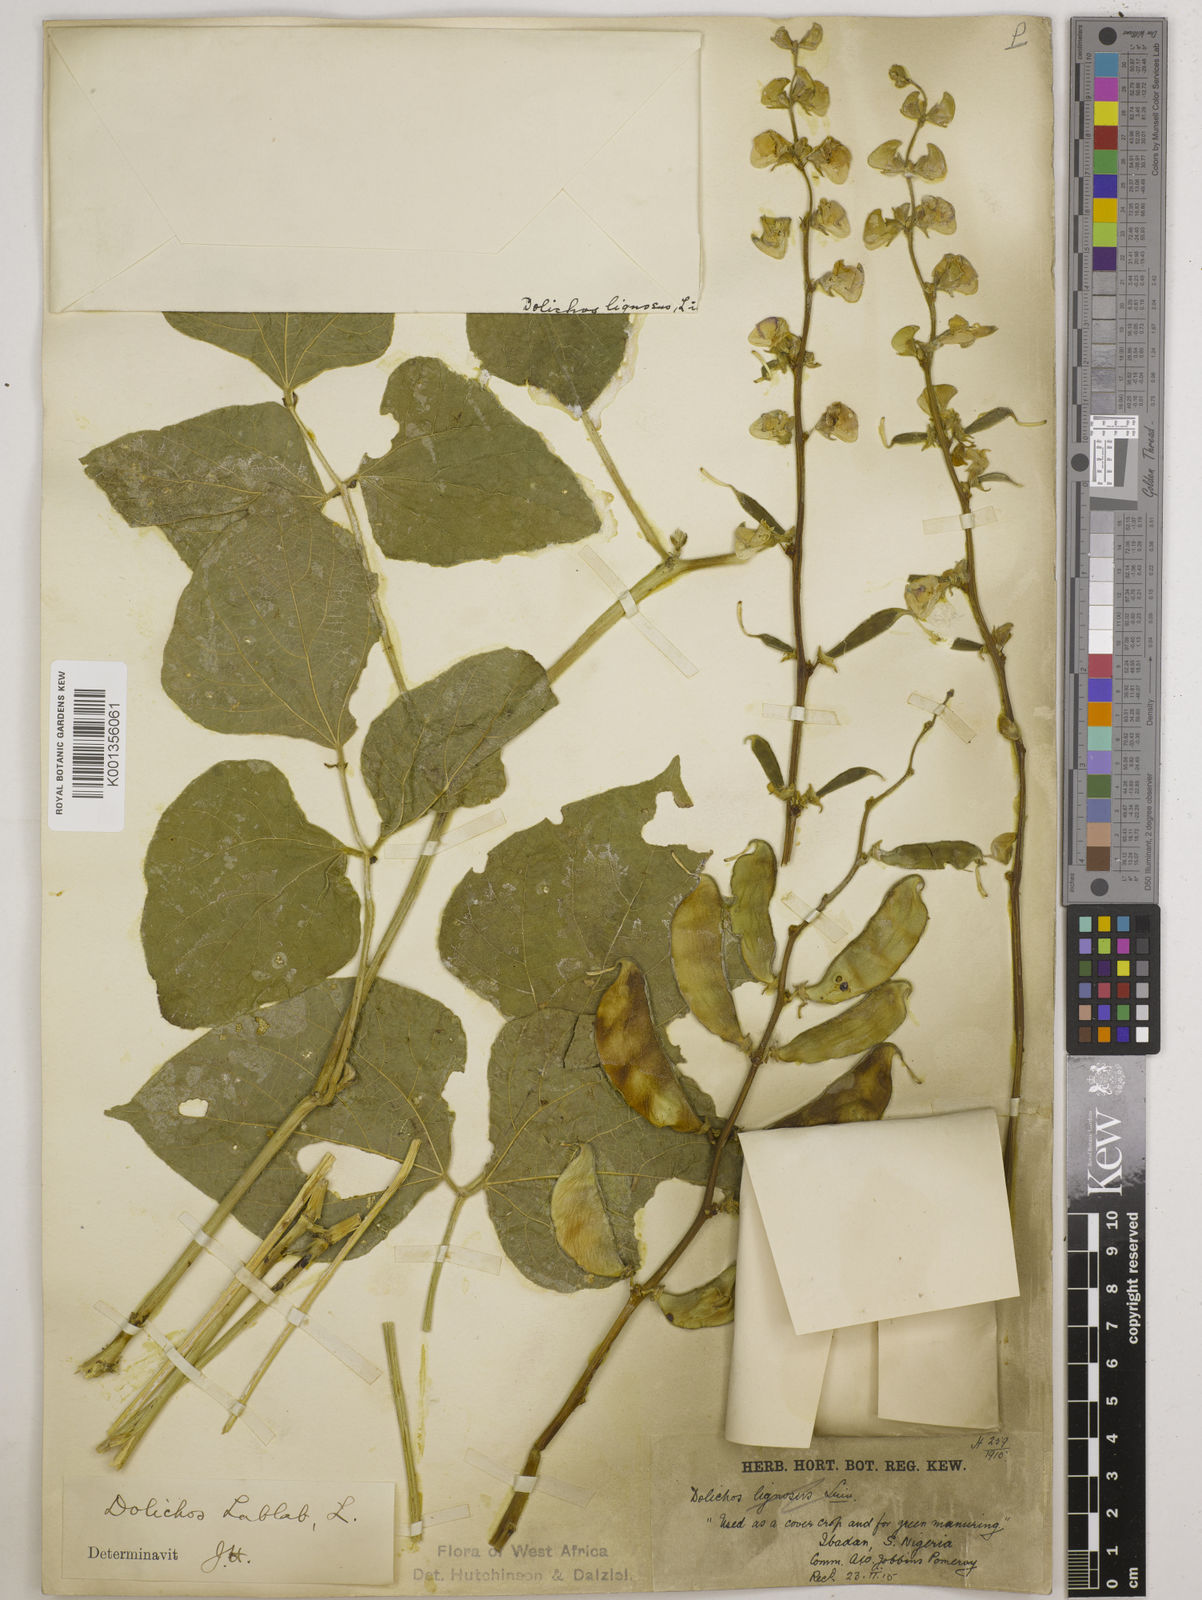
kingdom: Plantae
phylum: Tracheophyta
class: Magnoliopsida
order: Fabales
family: Fabaceae
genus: Lablab
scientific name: Lablab purpureus
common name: Lablab-bean
